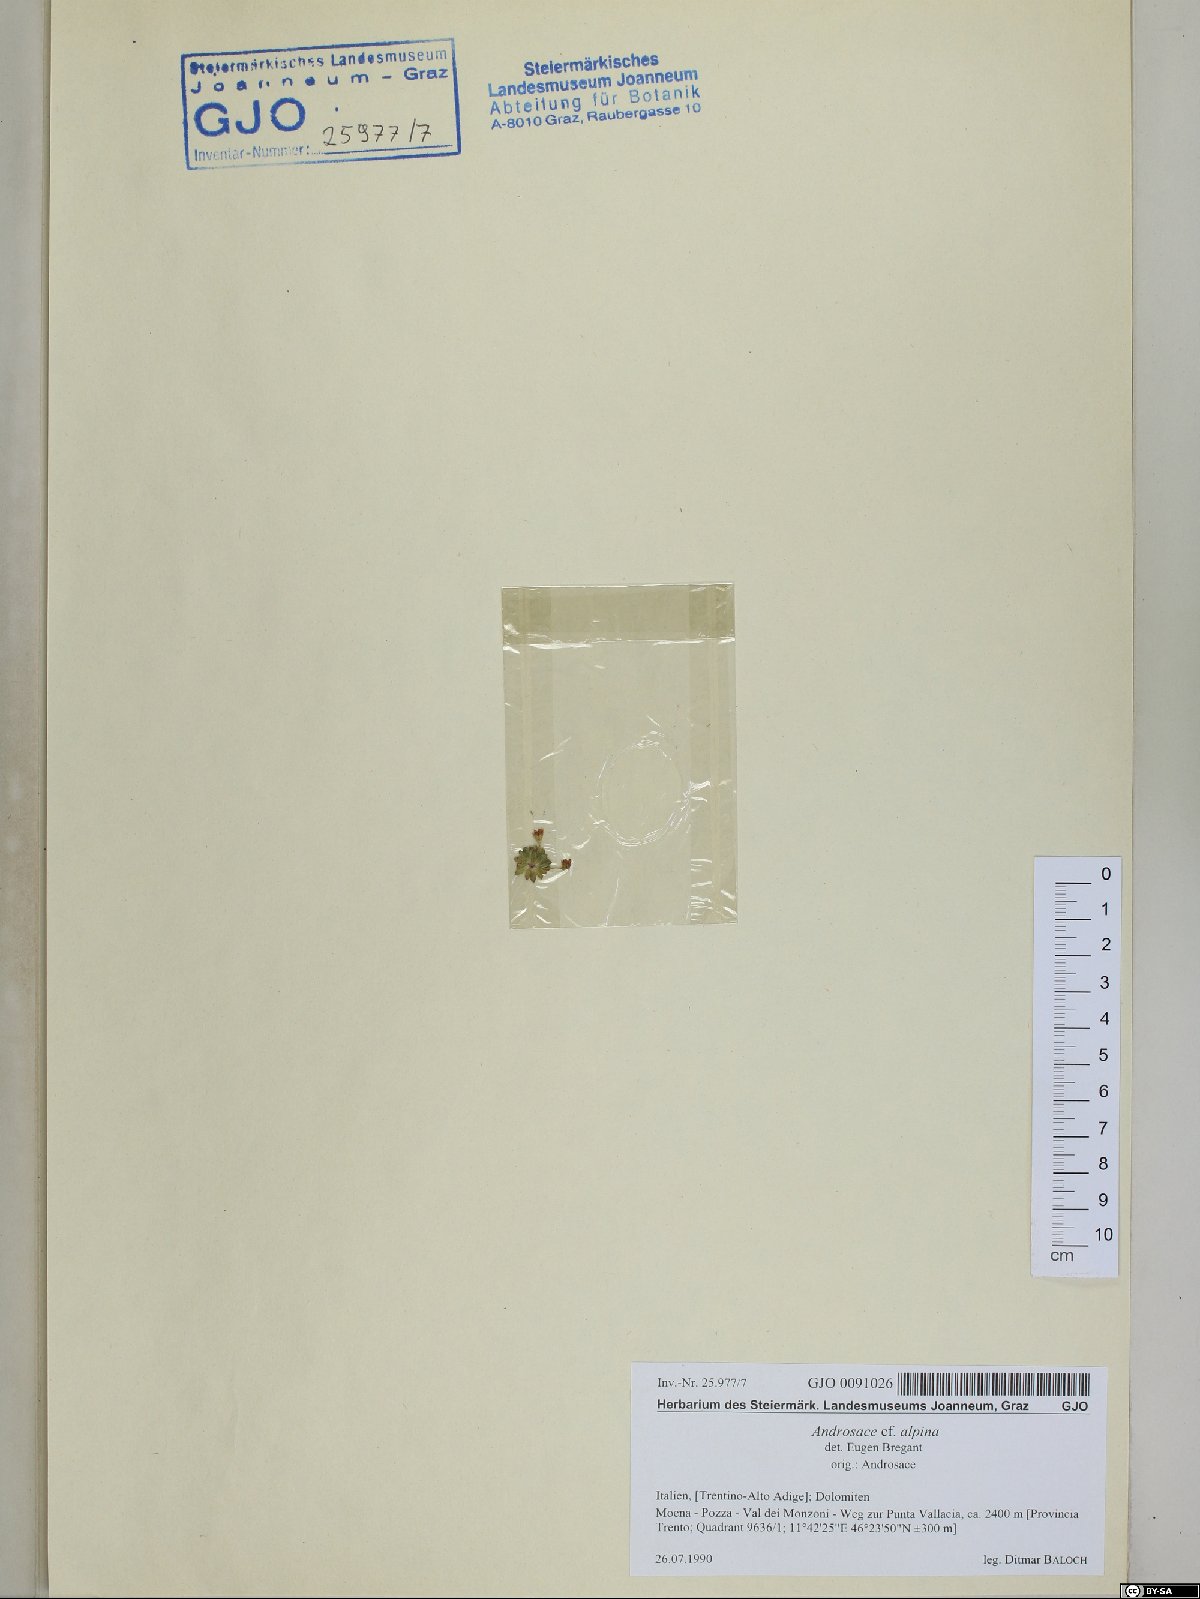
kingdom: Plantae
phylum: Tracheophyta
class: Magnoliopsida
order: Ericales
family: Primulaceae
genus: Androsace
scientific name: Androsace alpina
